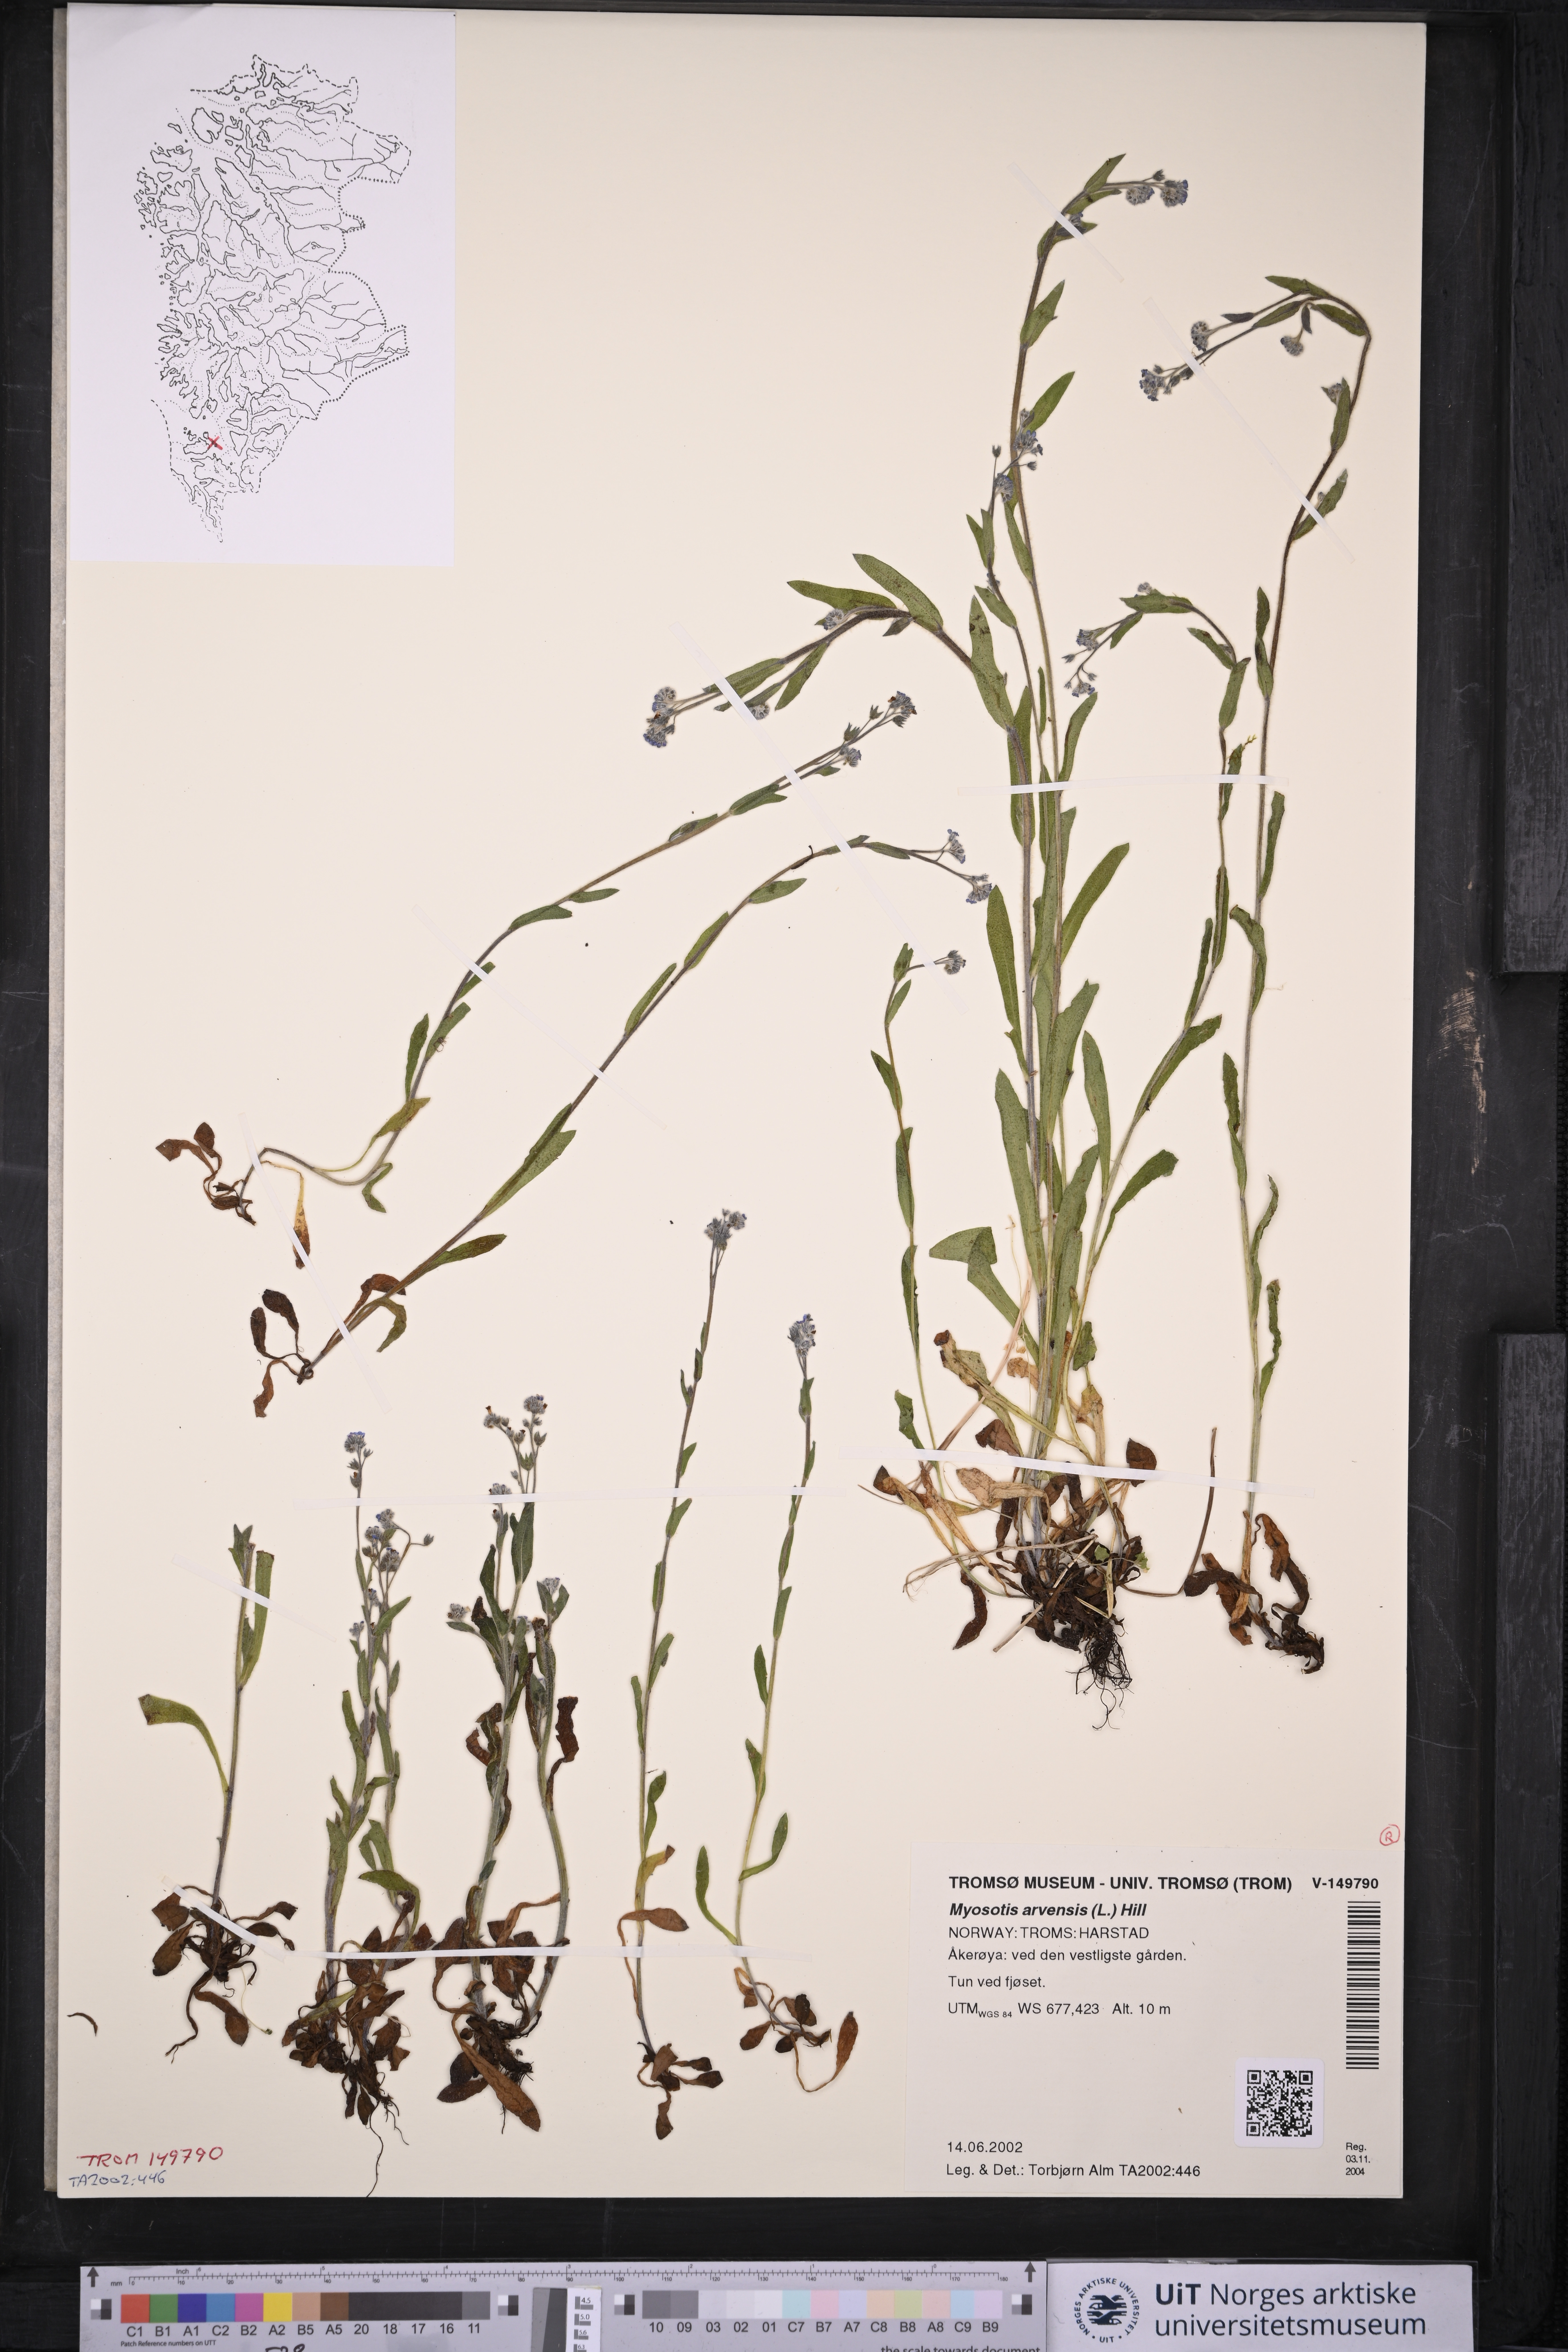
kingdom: Plantae
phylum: Tracheophyta
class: Magnoliopsida
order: Boraginales
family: Boraginaceae
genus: Myosotis
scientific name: Myosotis arvensis
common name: Field forget-me-not
